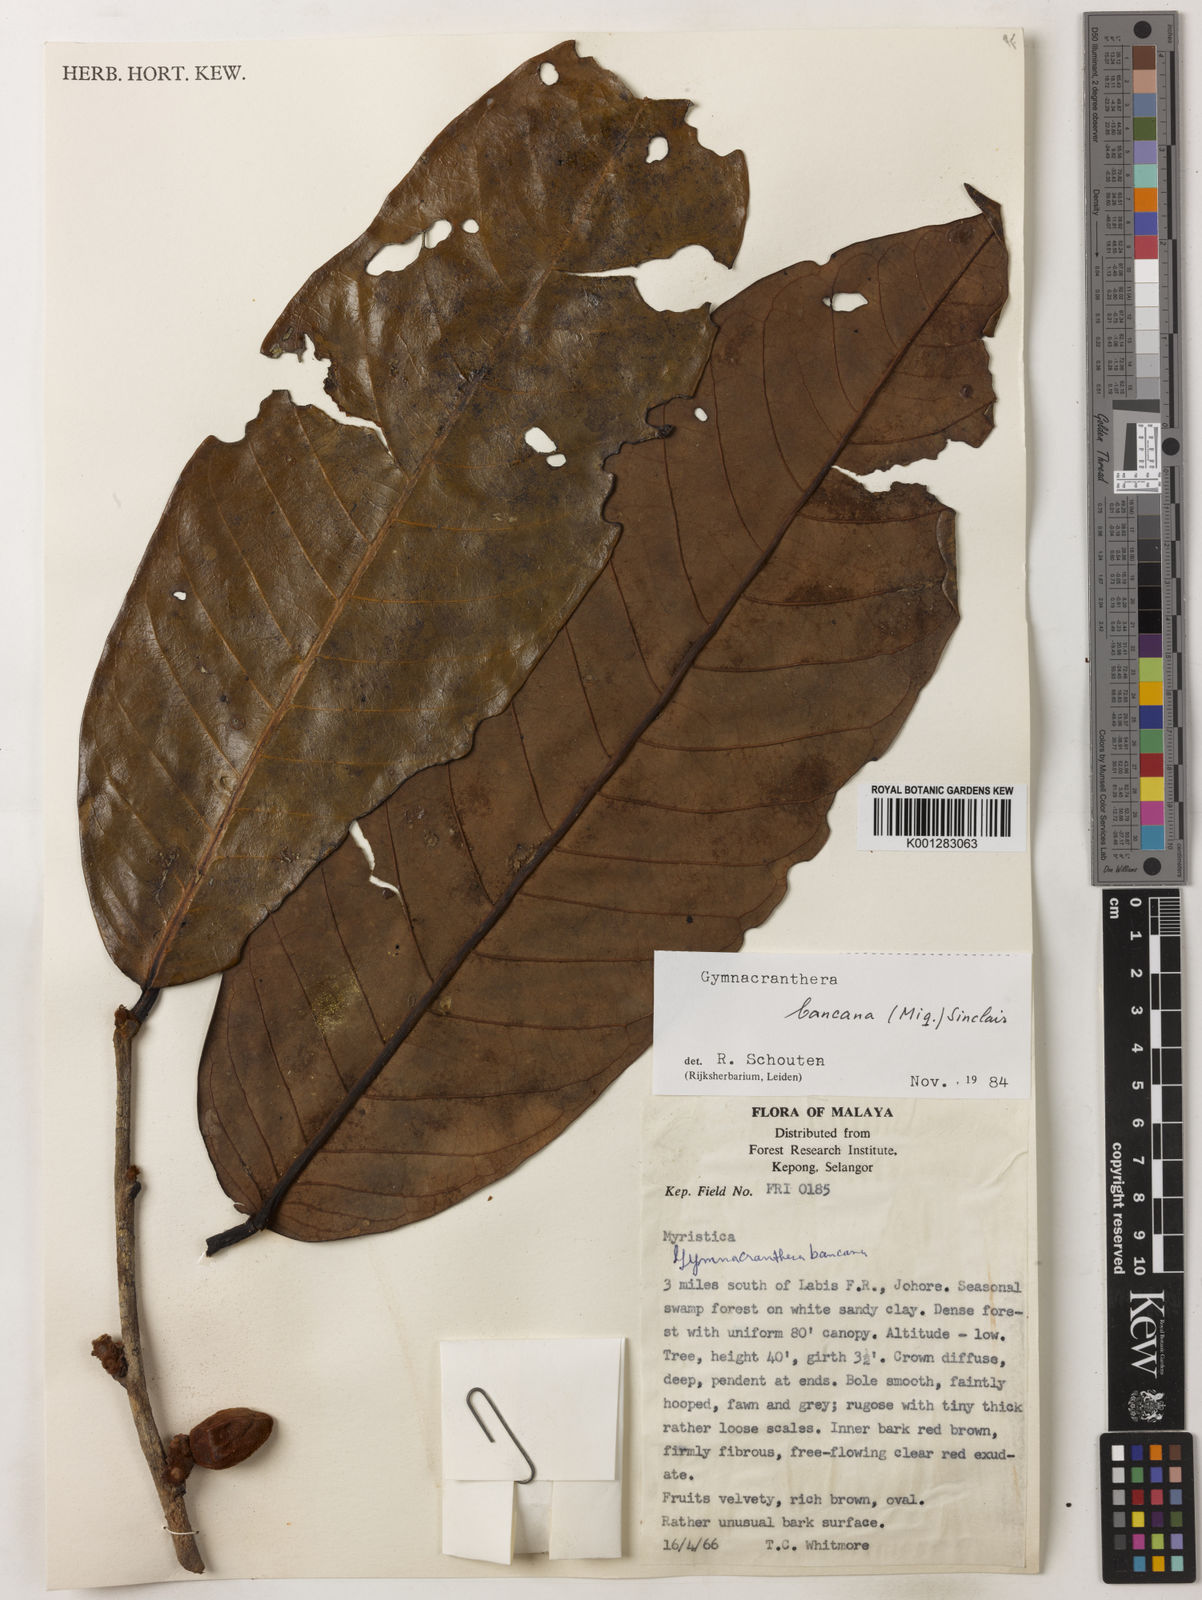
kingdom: Plantae
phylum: Tracheophyta
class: Magnoliopsida
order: Magnoliales
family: Myristicaceae
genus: Gymnacranthera
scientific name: Gymnacranthera bancana
